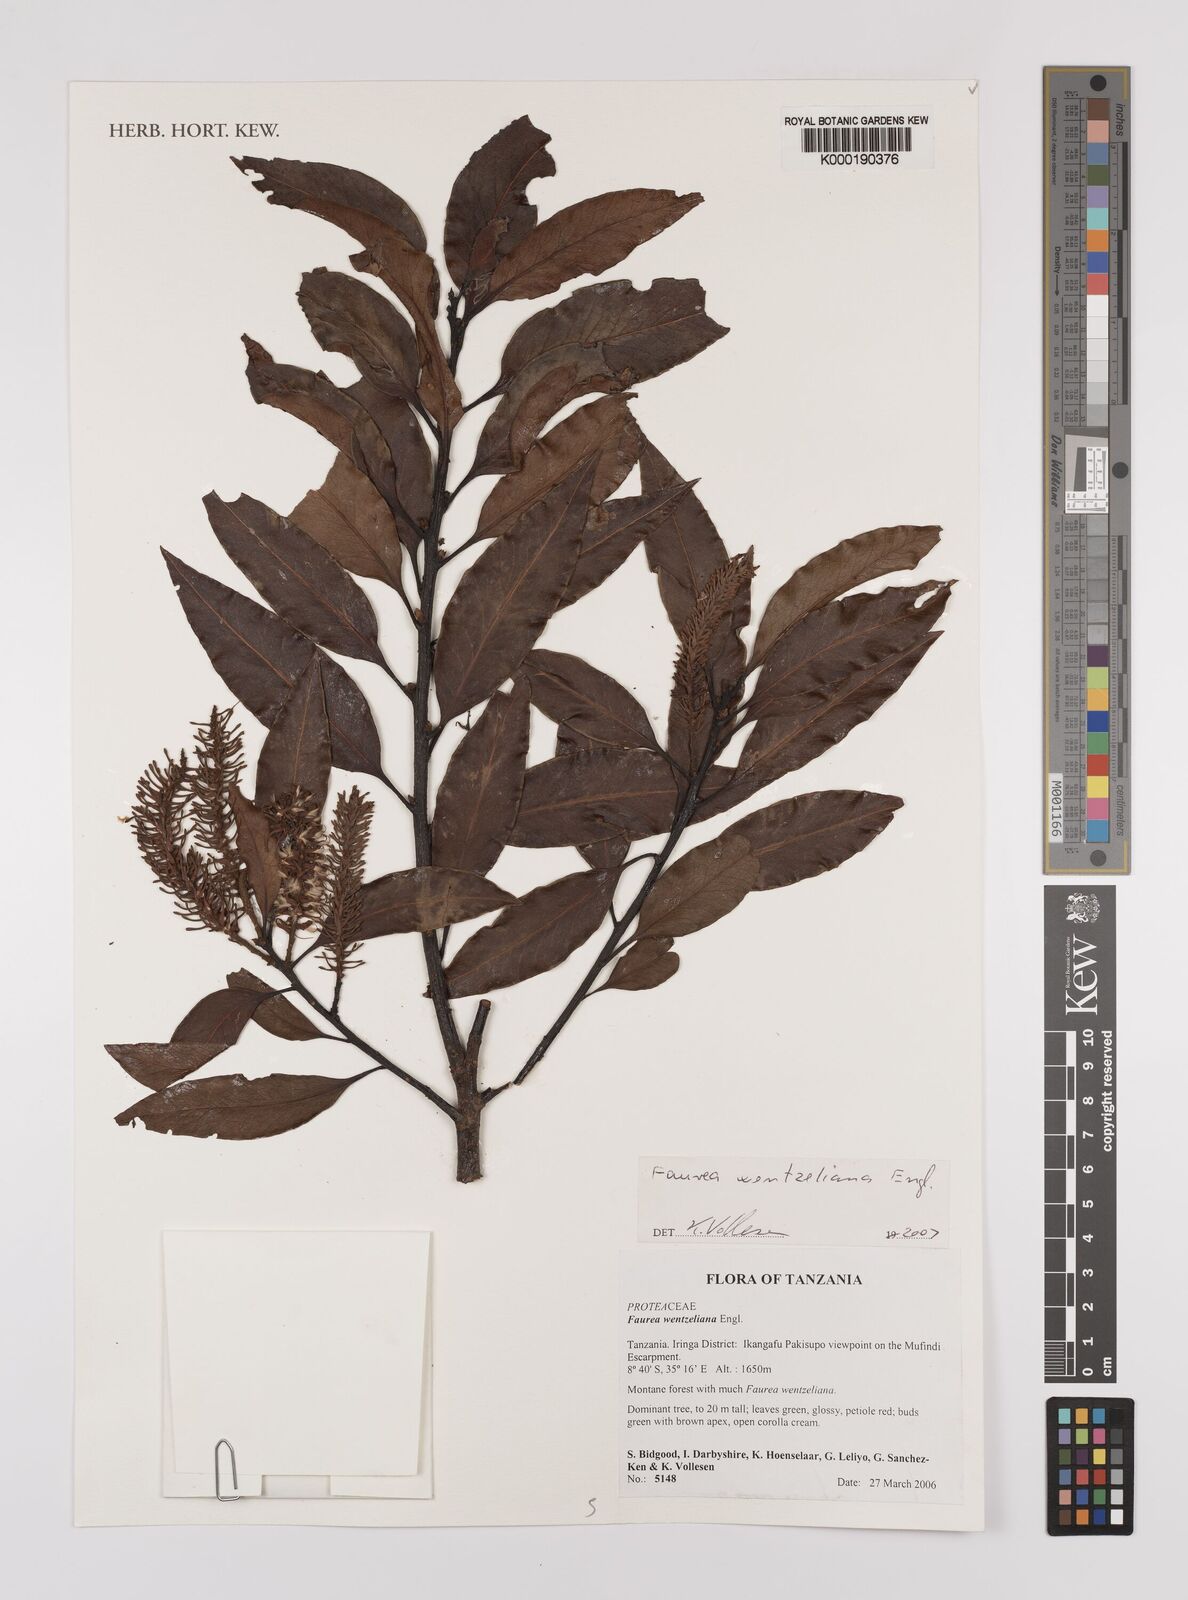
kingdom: Plantae
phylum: Tracheophyta
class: Magnoliopsida
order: Proteales
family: Proteaceae
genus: Faurea
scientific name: Faurea wentzeliana
